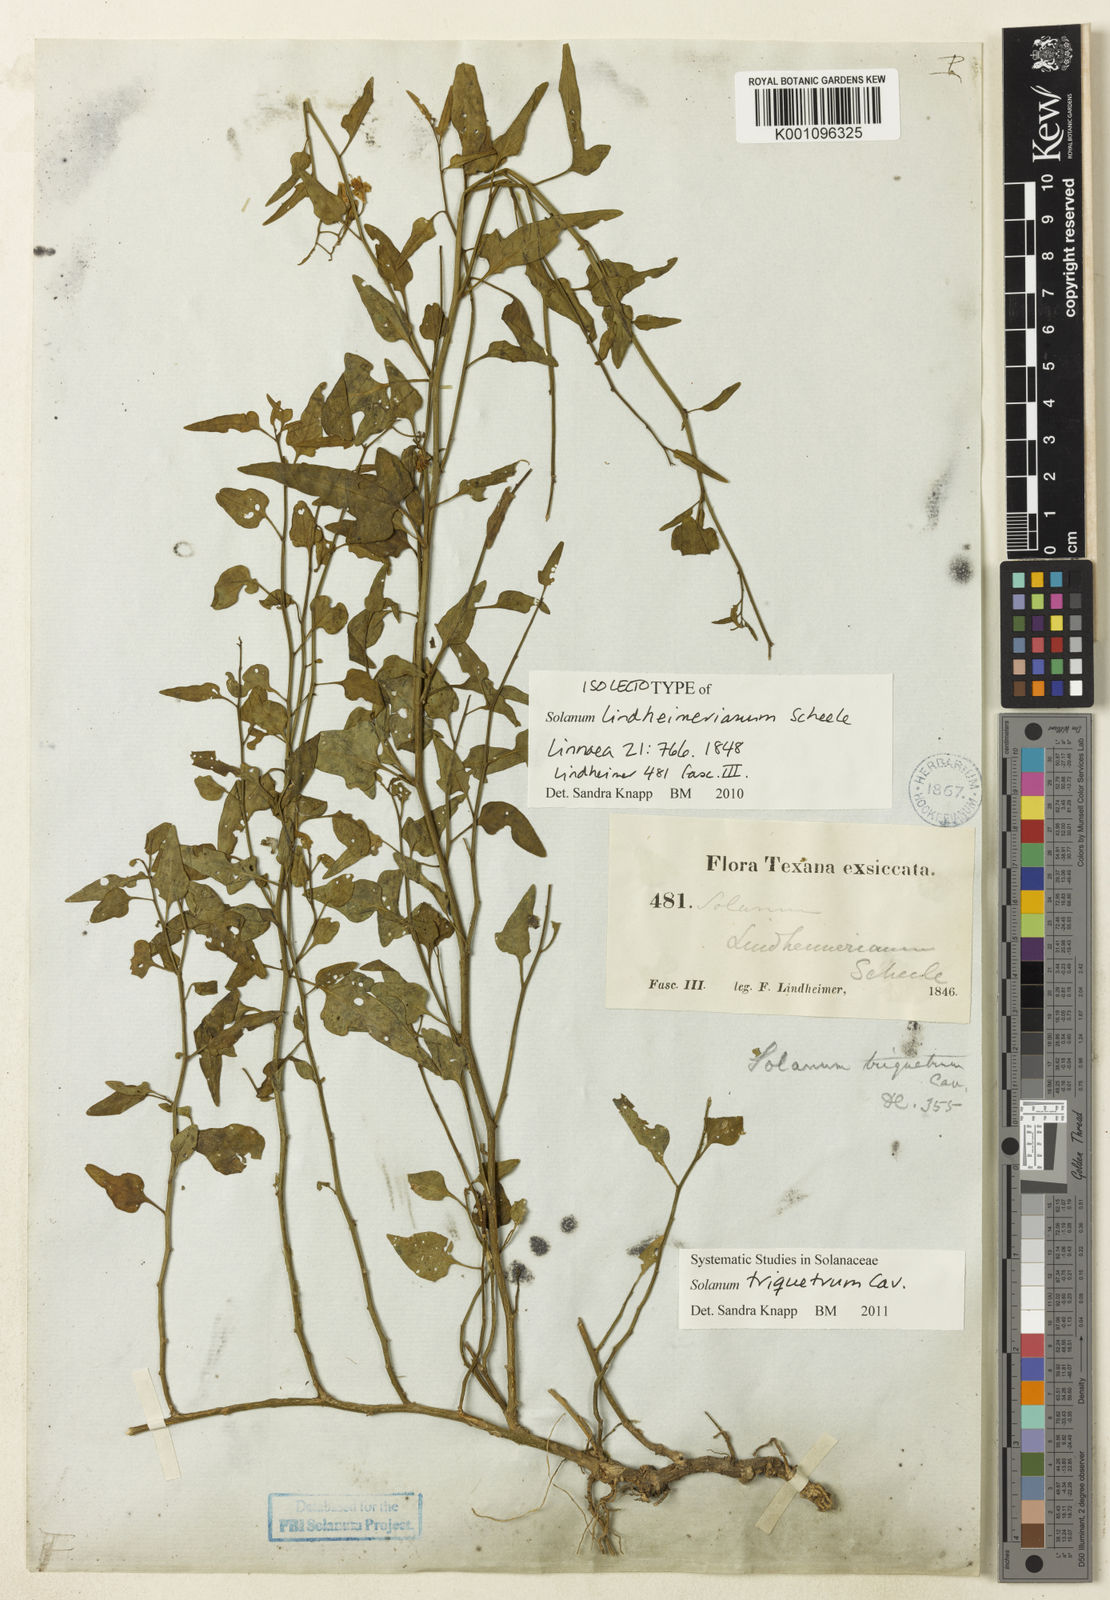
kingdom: Plantae
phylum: Tracheophyta
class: Magnoliopsida
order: Solanales
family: Solanaceae
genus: Solanum
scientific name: Solanum triquetrum
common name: Texas nightshade
